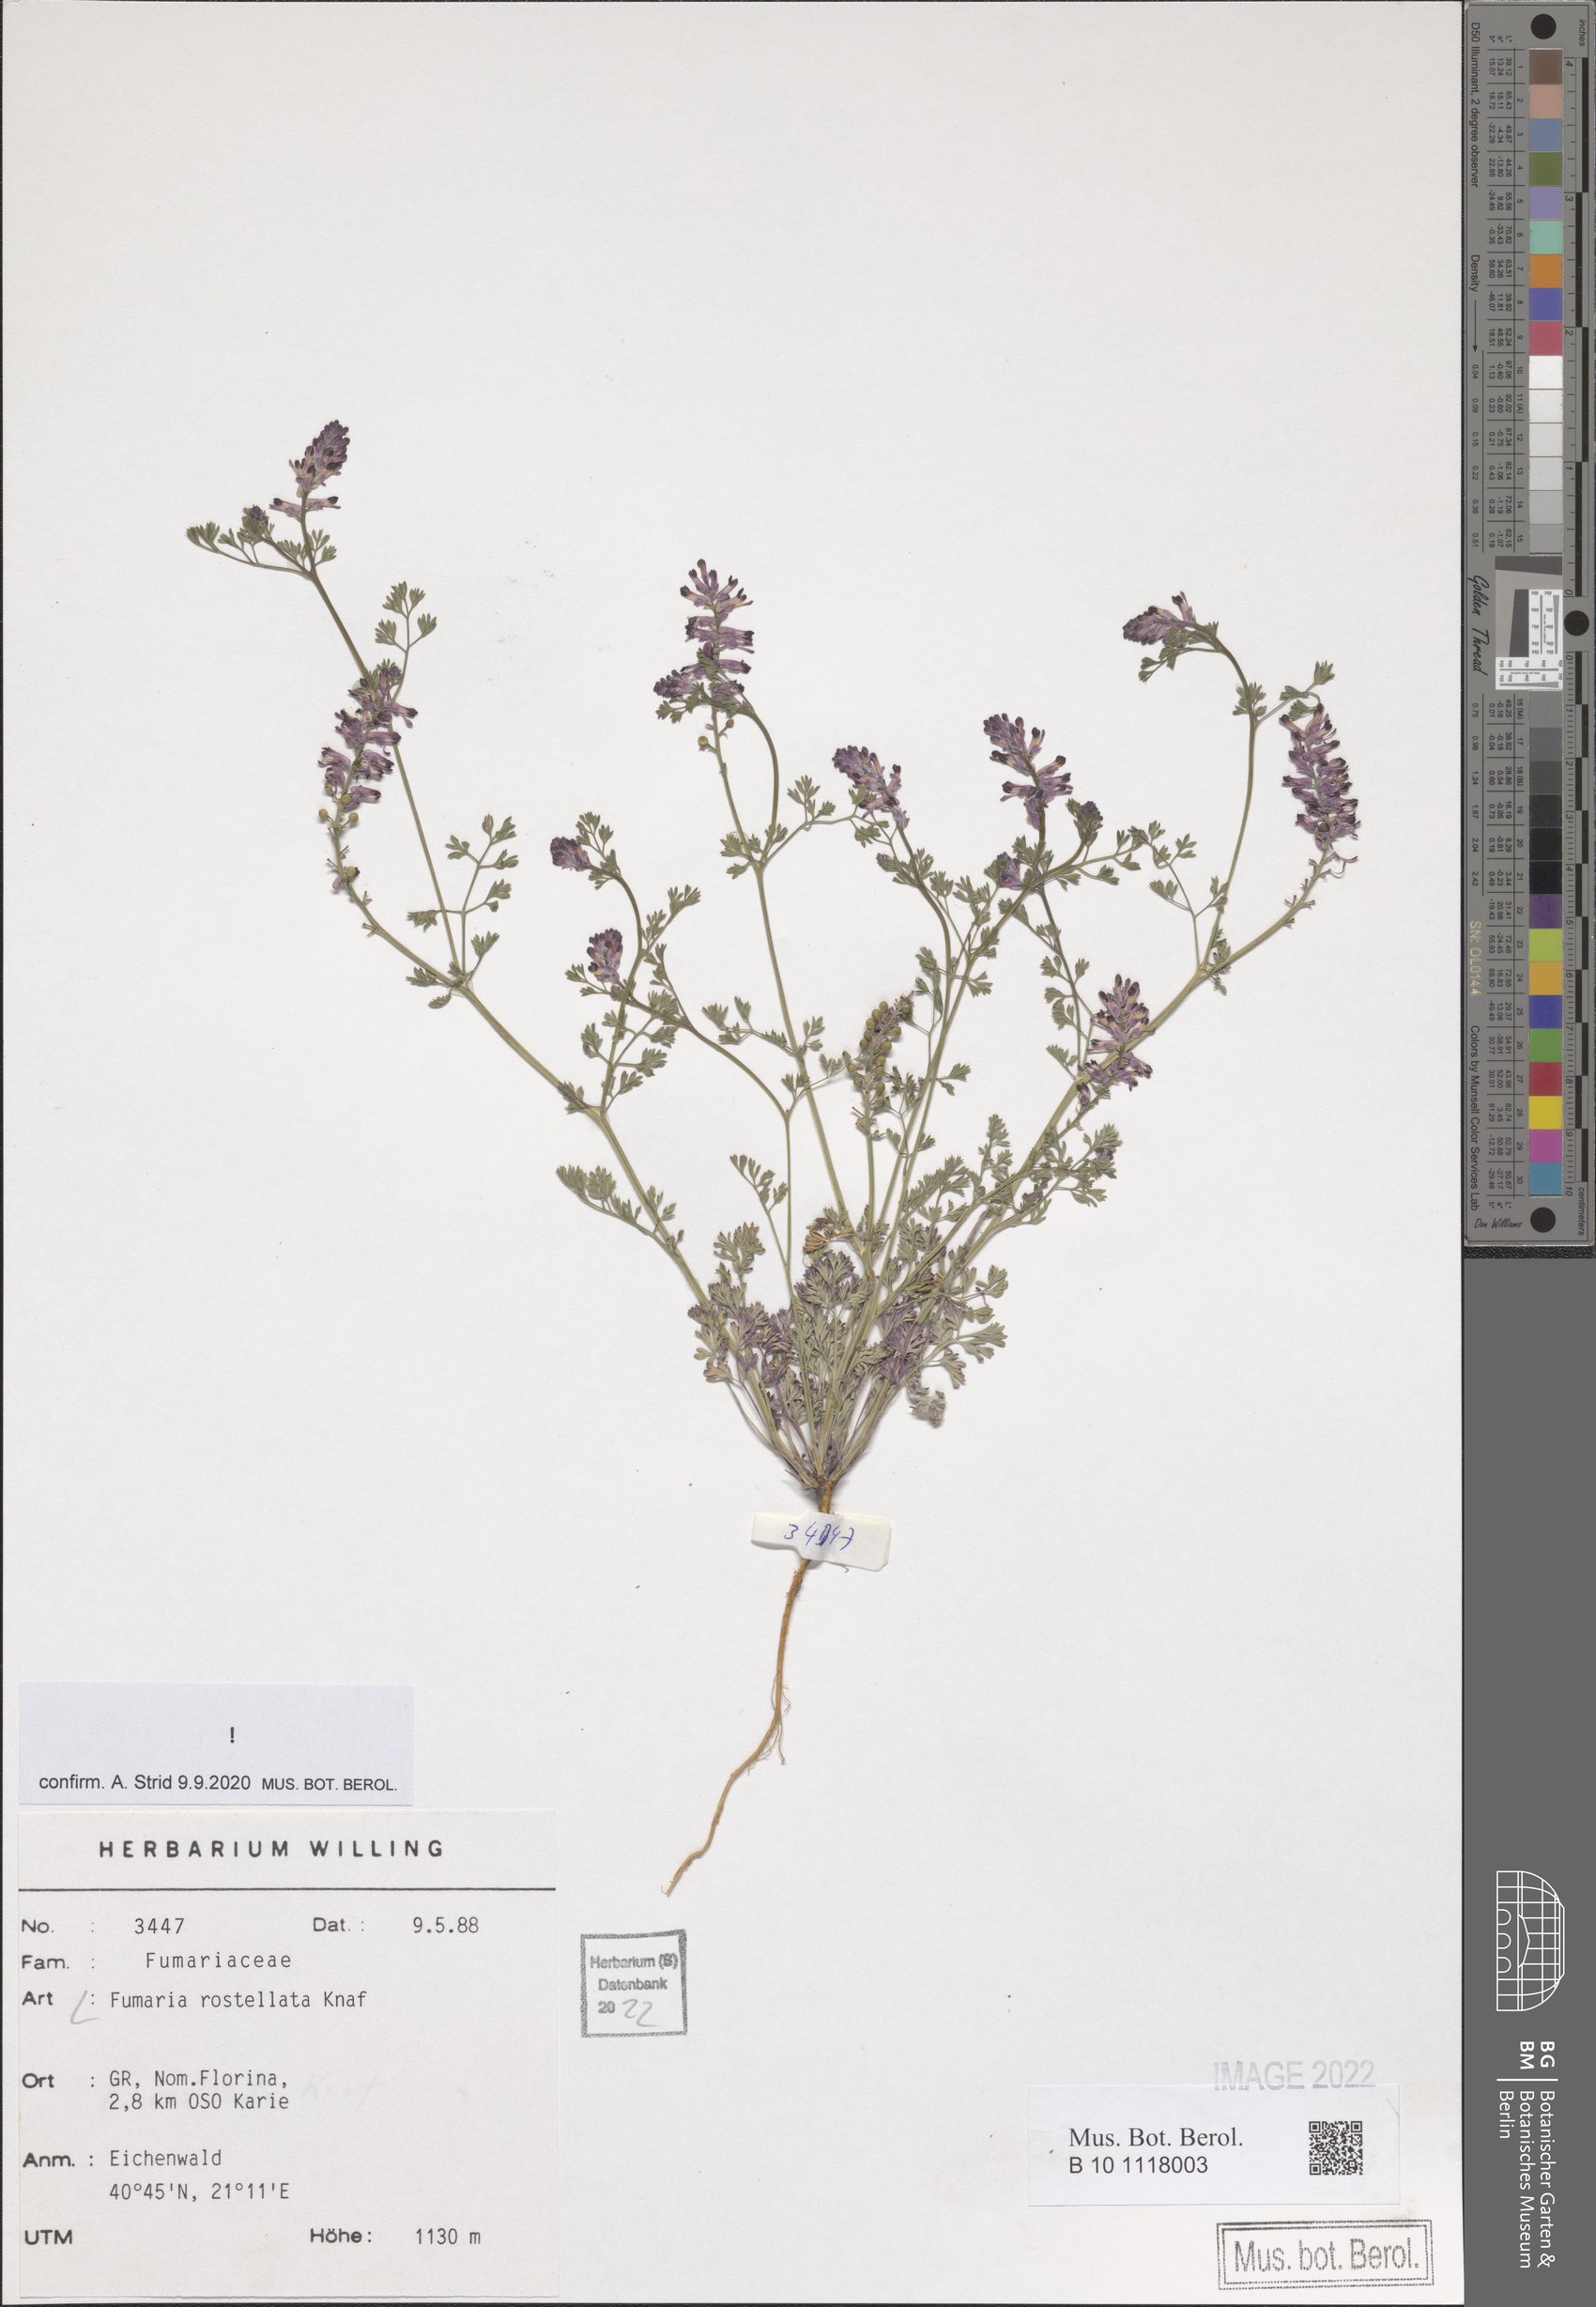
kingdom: Plantae
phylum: Tracheophyta
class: Magnoliopsida
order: Ranunculales
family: Papaveraceae
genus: Fumaria
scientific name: Fumaria rostellata
